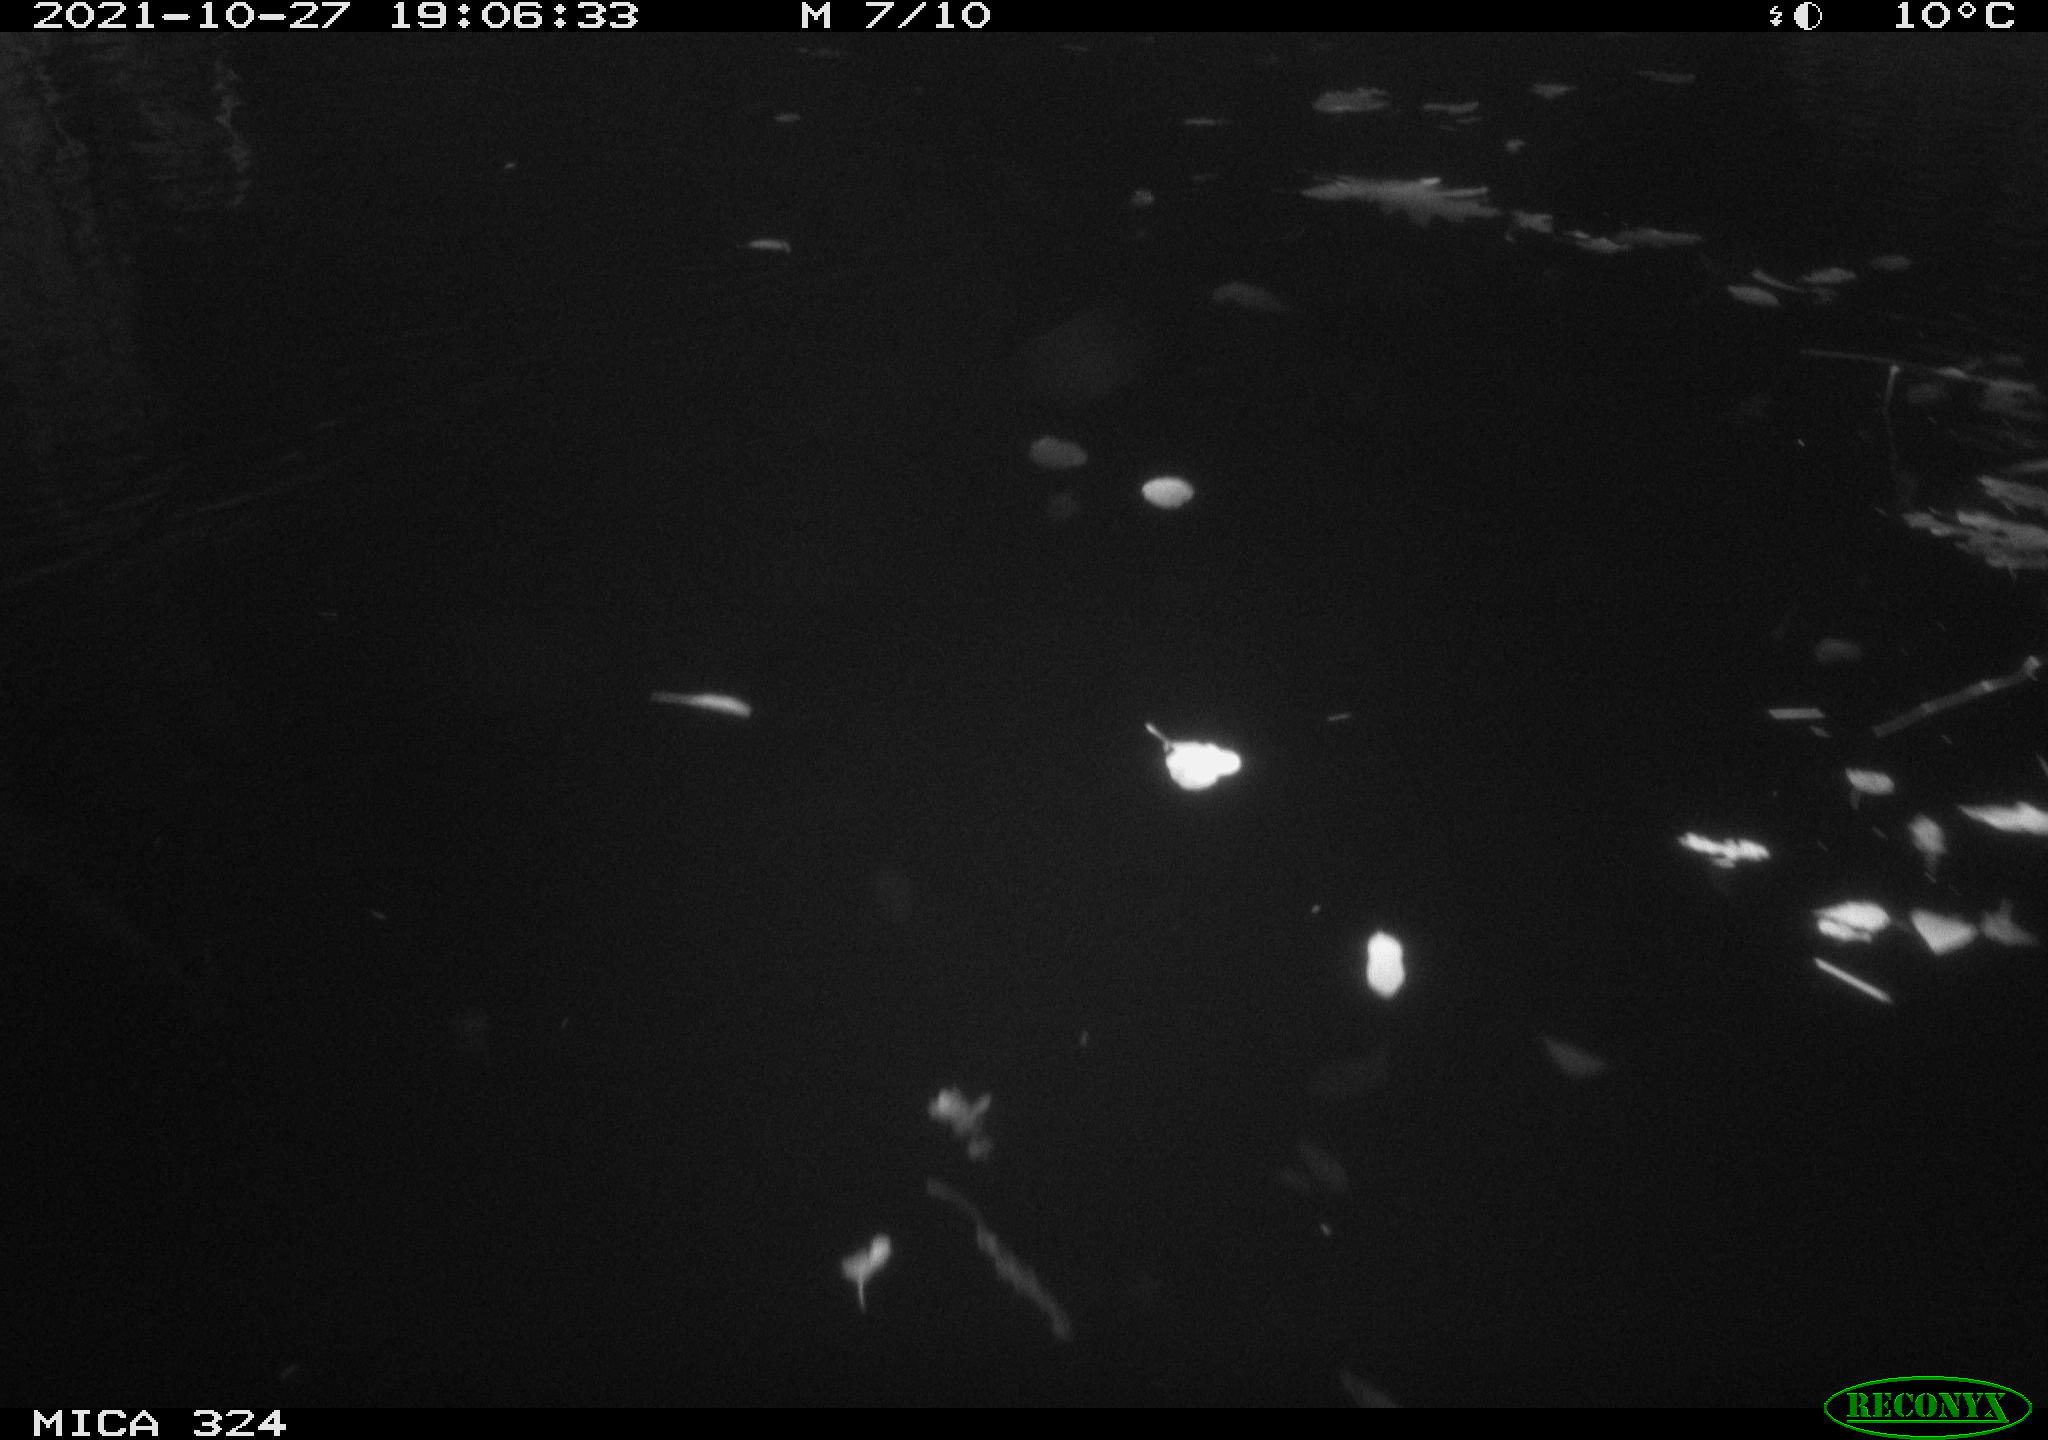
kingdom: Animalia
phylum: Chordata
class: Mammalia
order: Rodentia
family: Cricetidae
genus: Ondatra
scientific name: Ondatra zibethicus
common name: Muskrat
